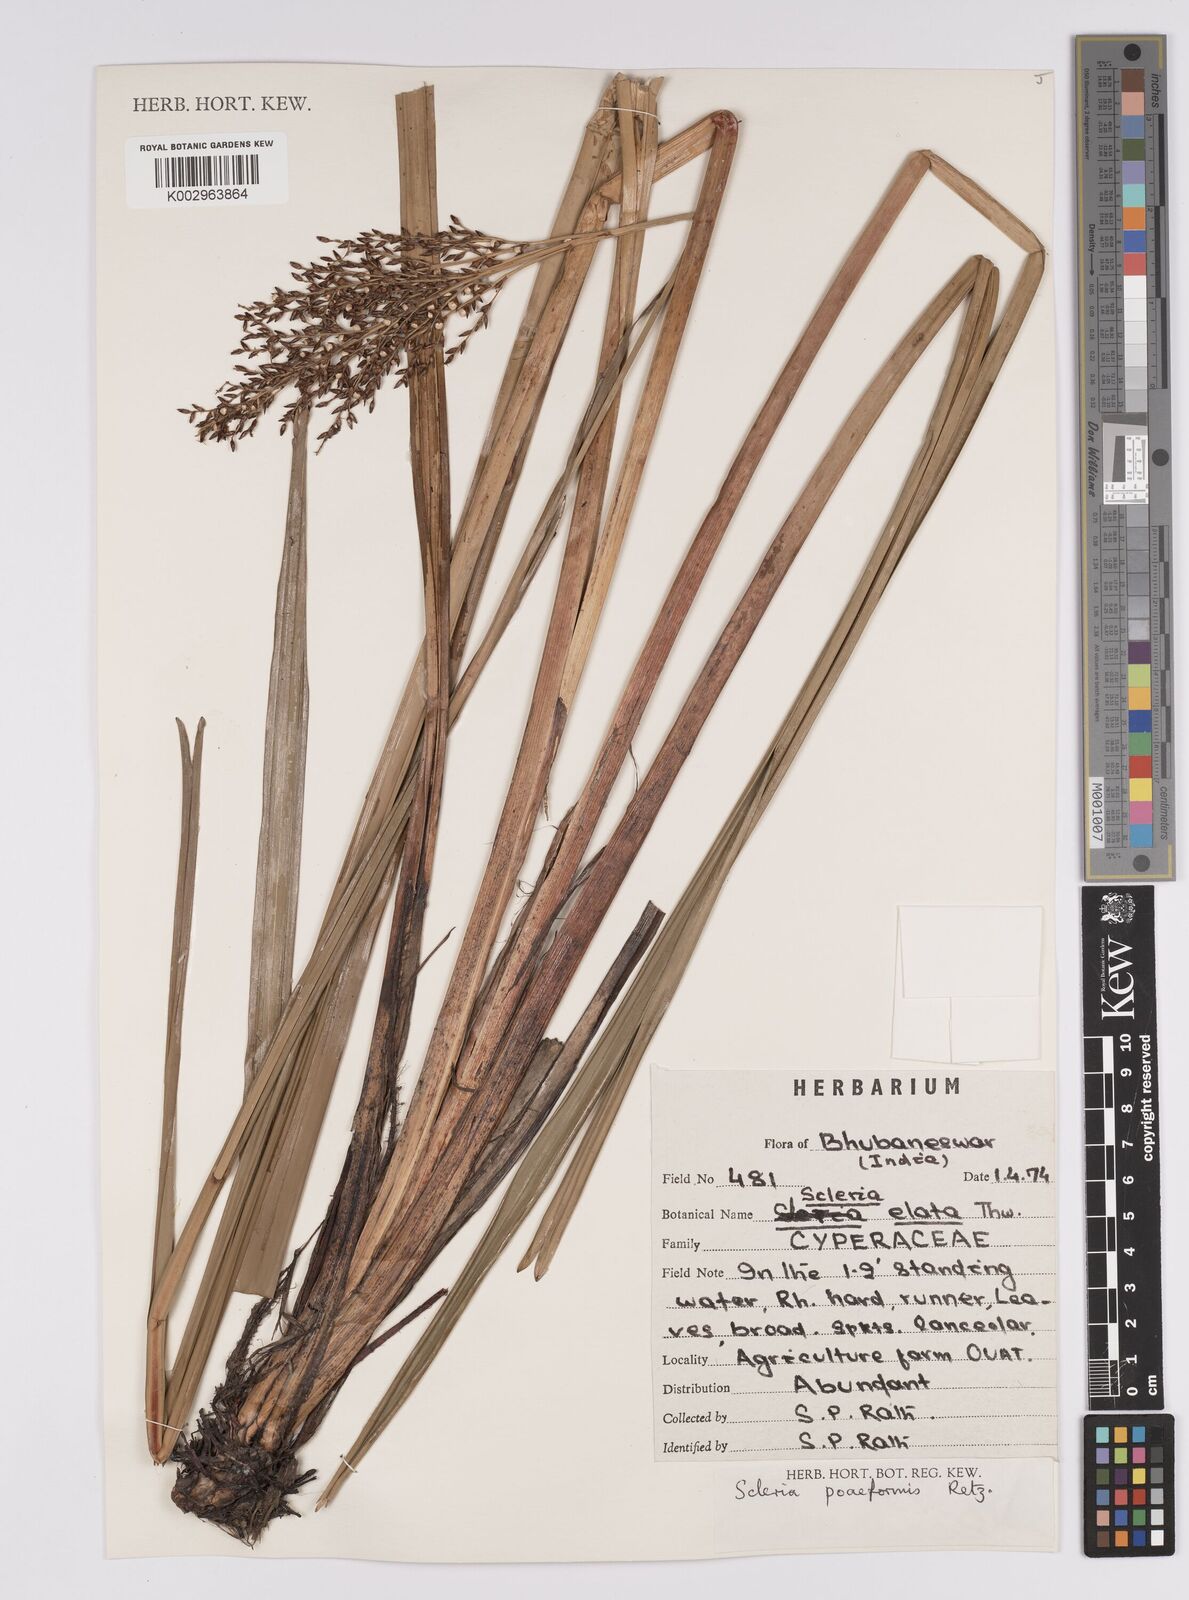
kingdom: Plantae
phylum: Tracheophyta
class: Liliopsida
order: Poales
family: Cyperaceae
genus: Scleria
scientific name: Scleria poiformis
